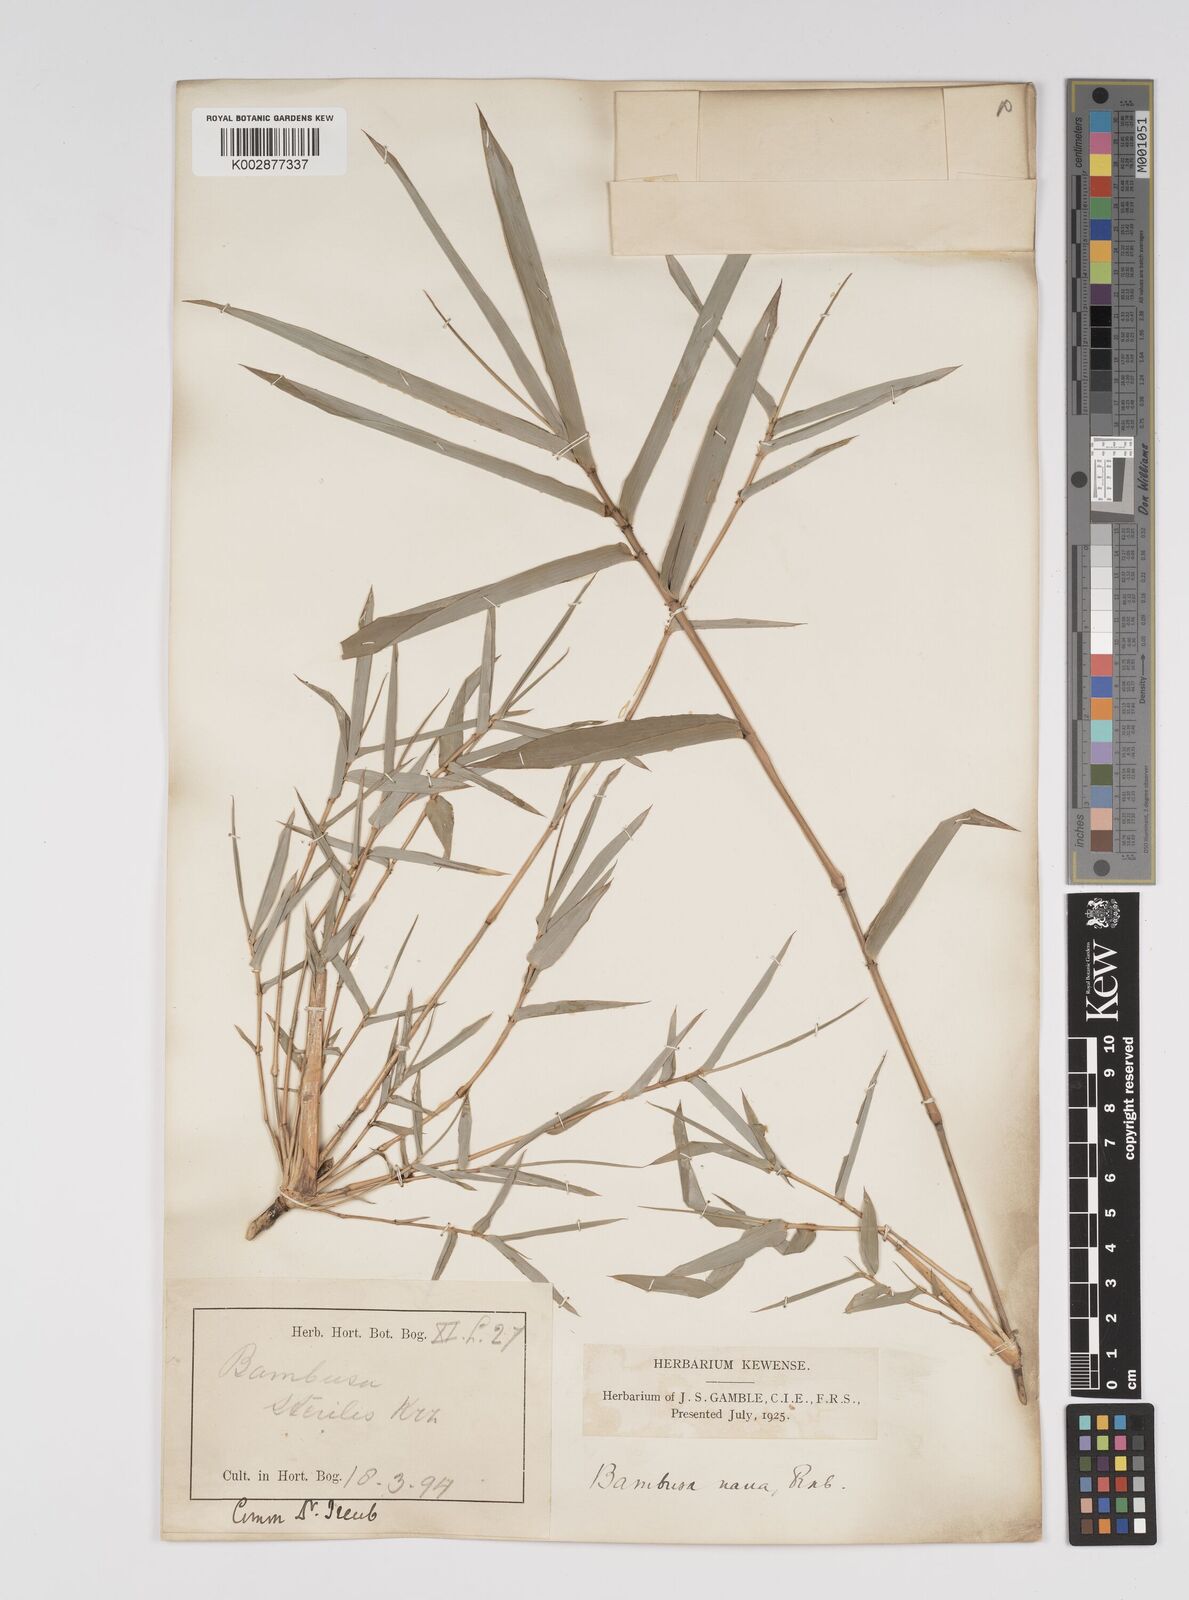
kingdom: Plantae
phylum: Tracheophyta
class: Liliopsida
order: Poales
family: Poaceae
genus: Bambusa
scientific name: Bambusa multiplex
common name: Hedge bamboo
